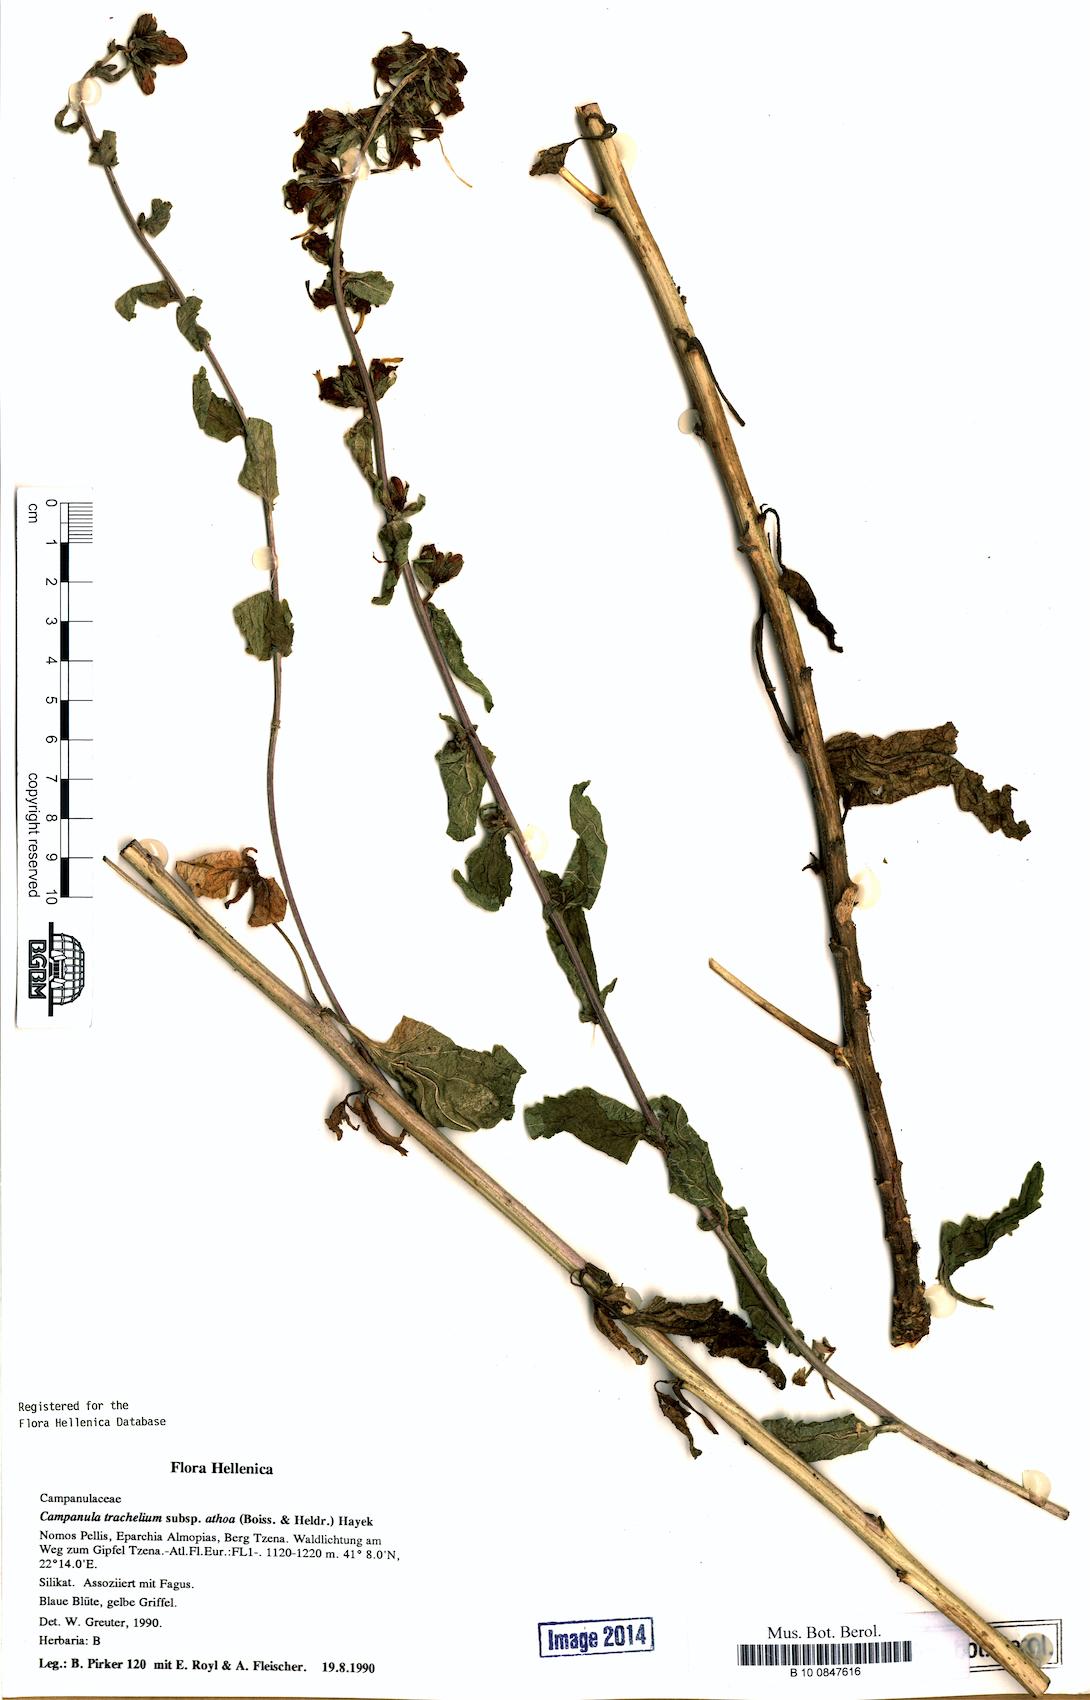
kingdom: Plantae
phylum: Tracheophyta
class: Magnoliopsida
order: Asterales
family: Campanulaceae
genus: Campanula
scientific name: Campanula trachelium
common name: Nettle-leaved bellflower
